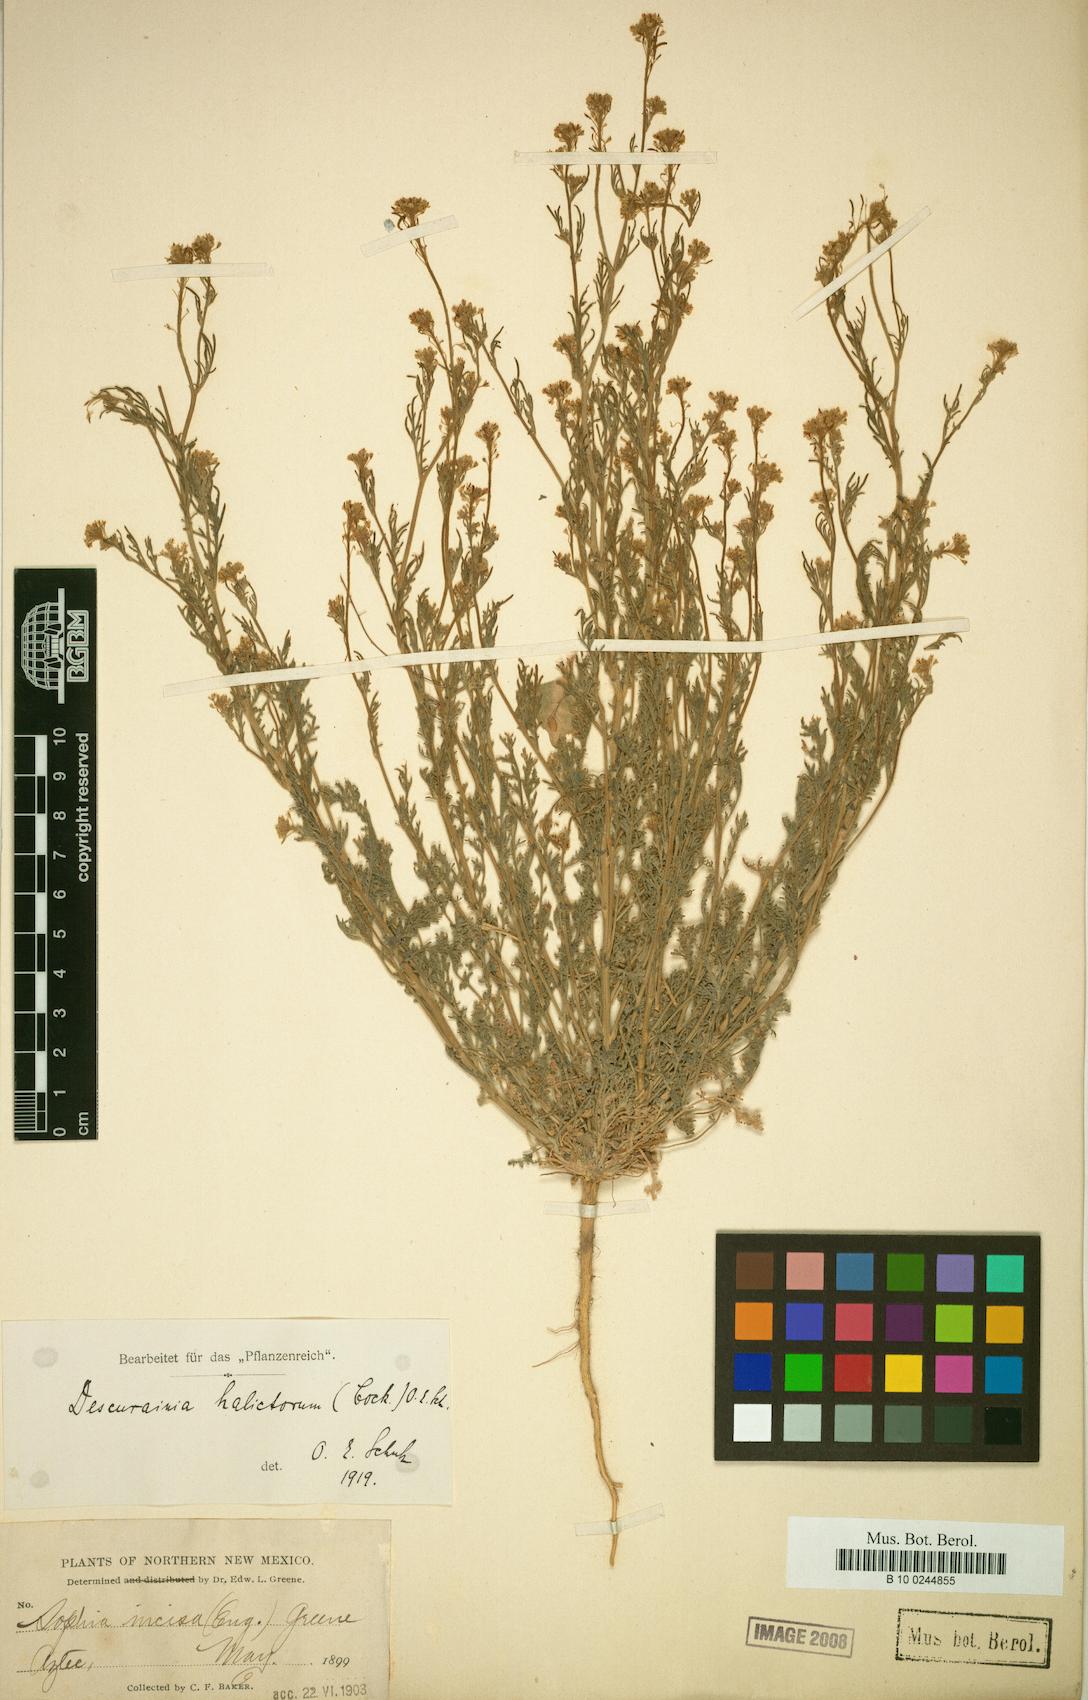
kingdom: Plantae
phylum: Tracheophyta
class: Magnoliopsida
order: Brassicales
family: Brassicaceae
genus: Descurainia
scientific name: Descurainia pinnata
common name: Western tansy mustard
